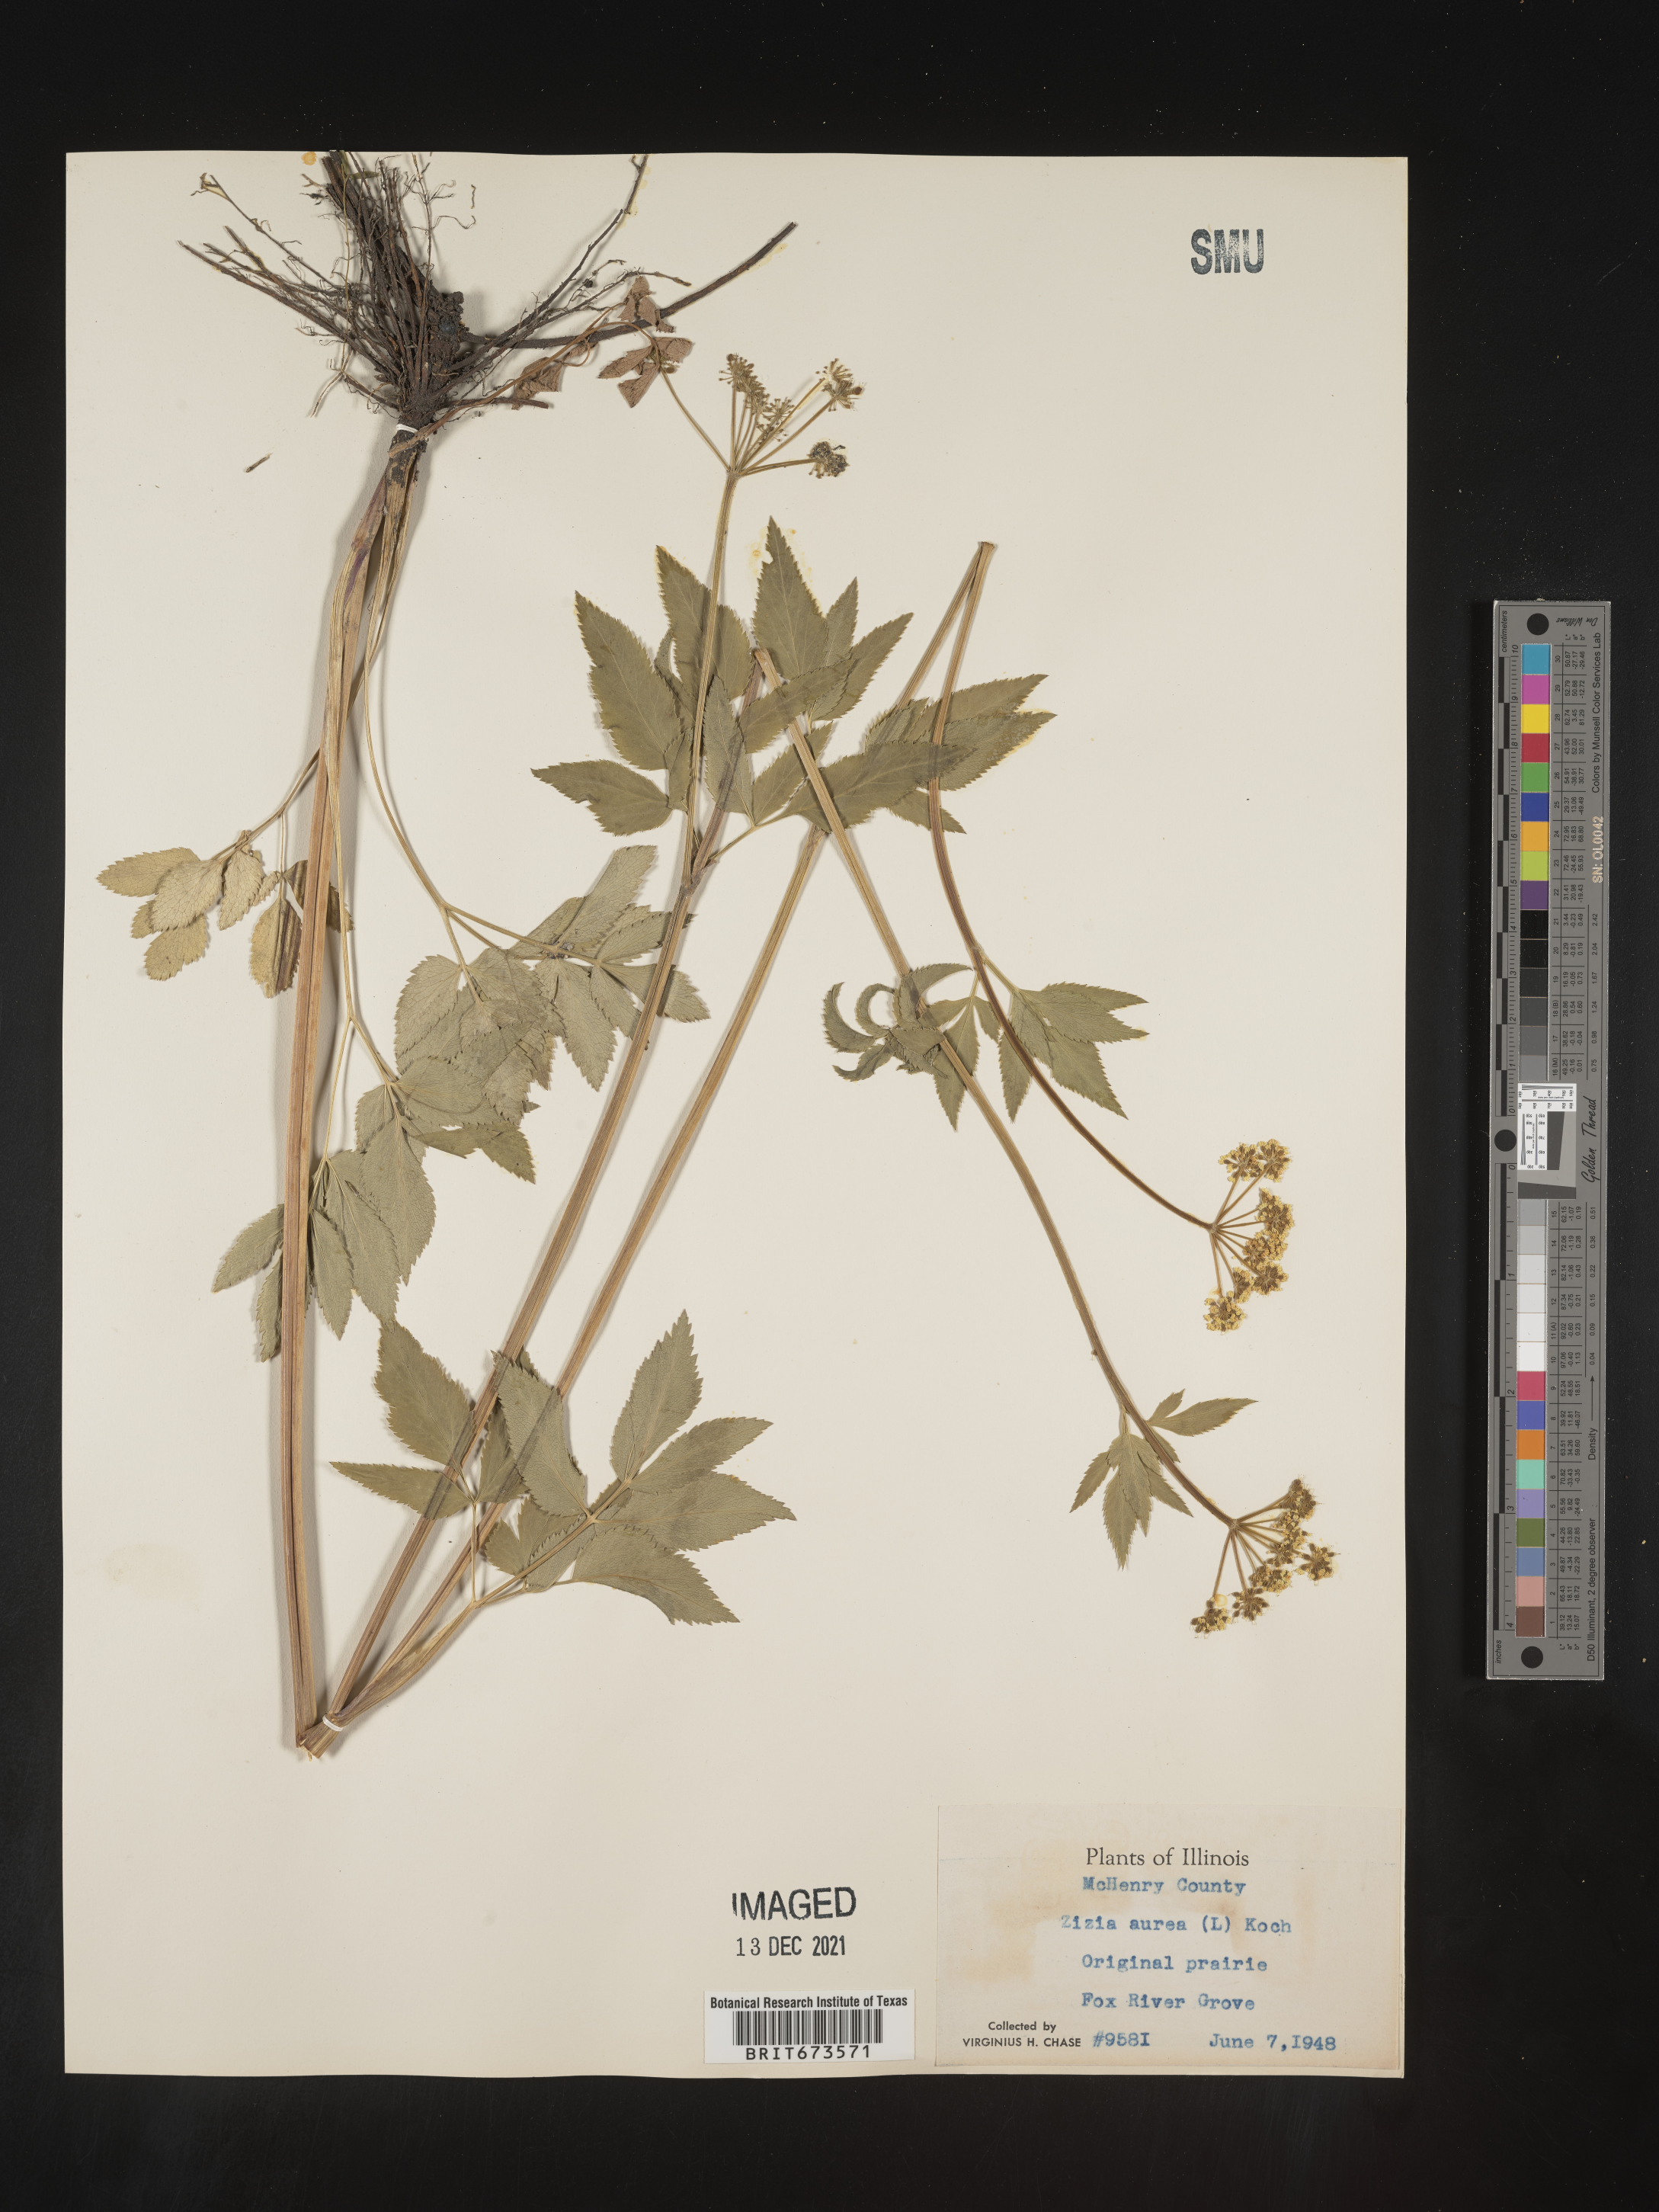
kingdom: Plantae
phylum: Tracheophyta
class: Magnoliopsida
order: Apiales
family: Apiaceae
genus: Zizia
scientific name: Zizia aurea
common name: Golden alexanders
